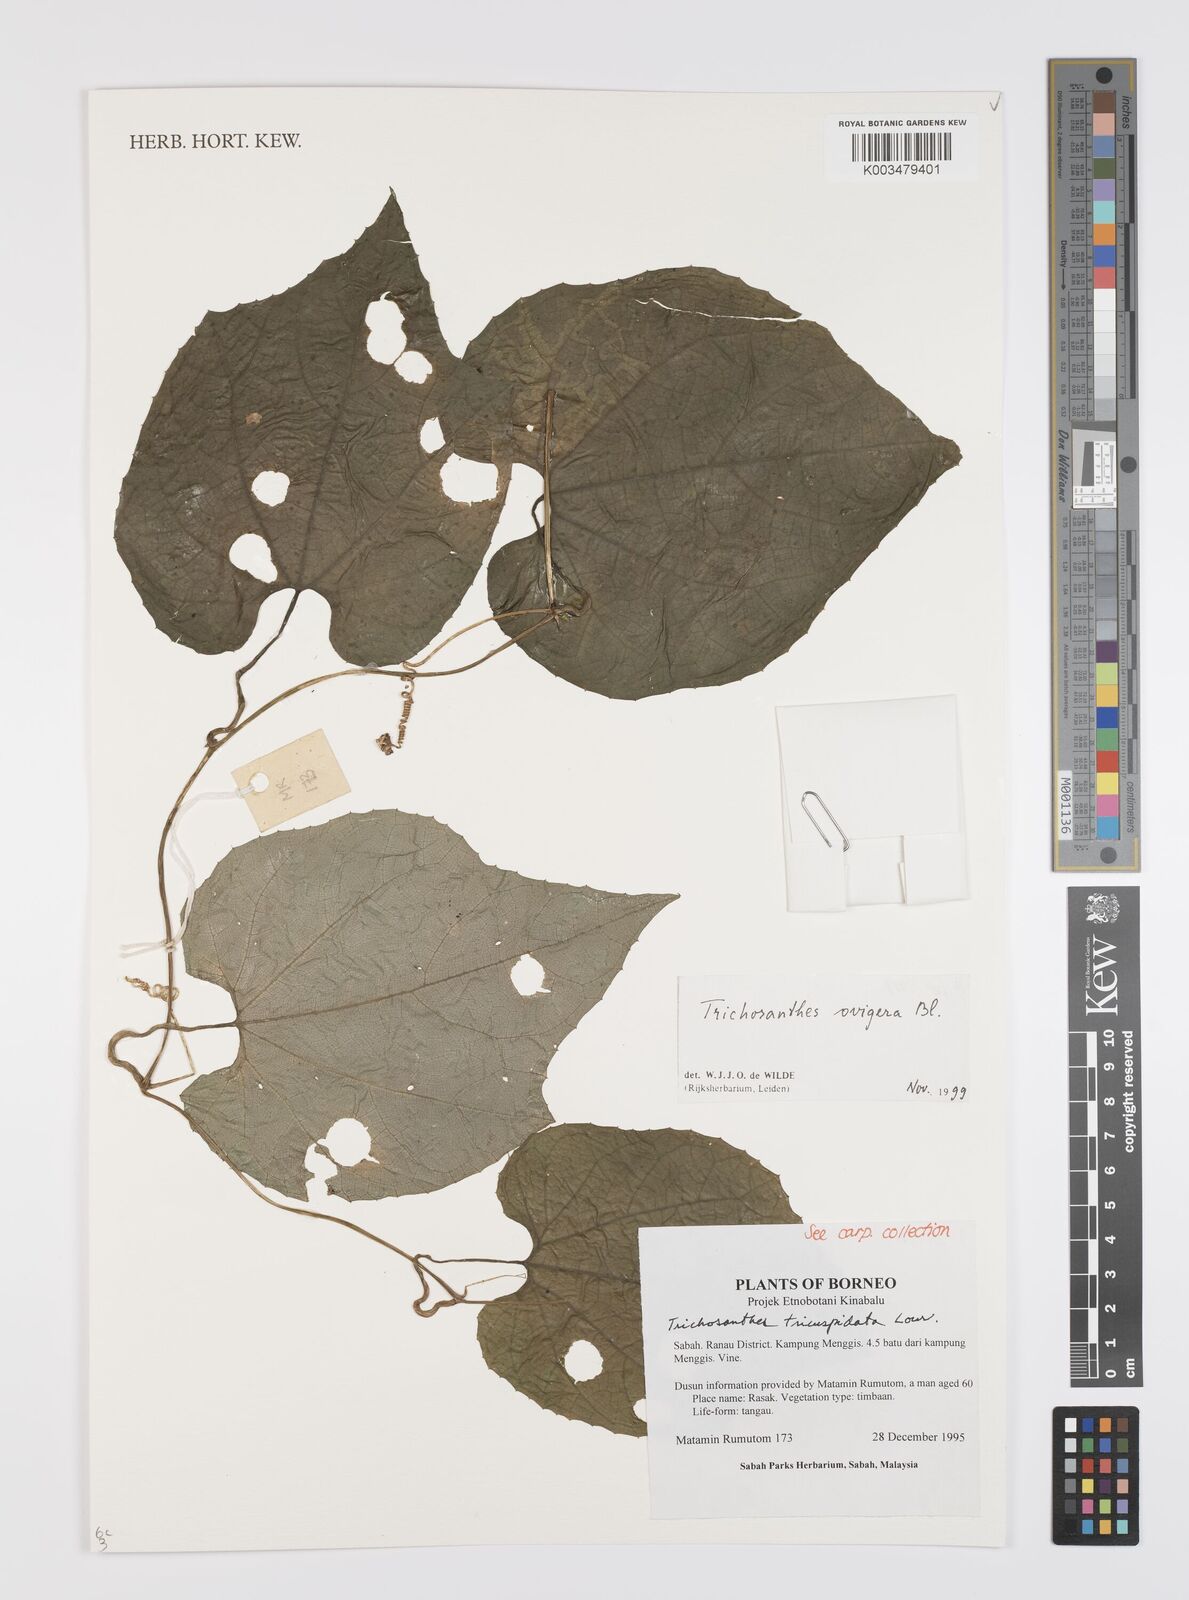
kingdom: Plantae
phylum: Tracheophyta
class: Magnoliopsida
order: Cucurbitales
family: Cucurbitaceae
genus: Trichosanthes
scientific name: Trichosanthes ovigera
